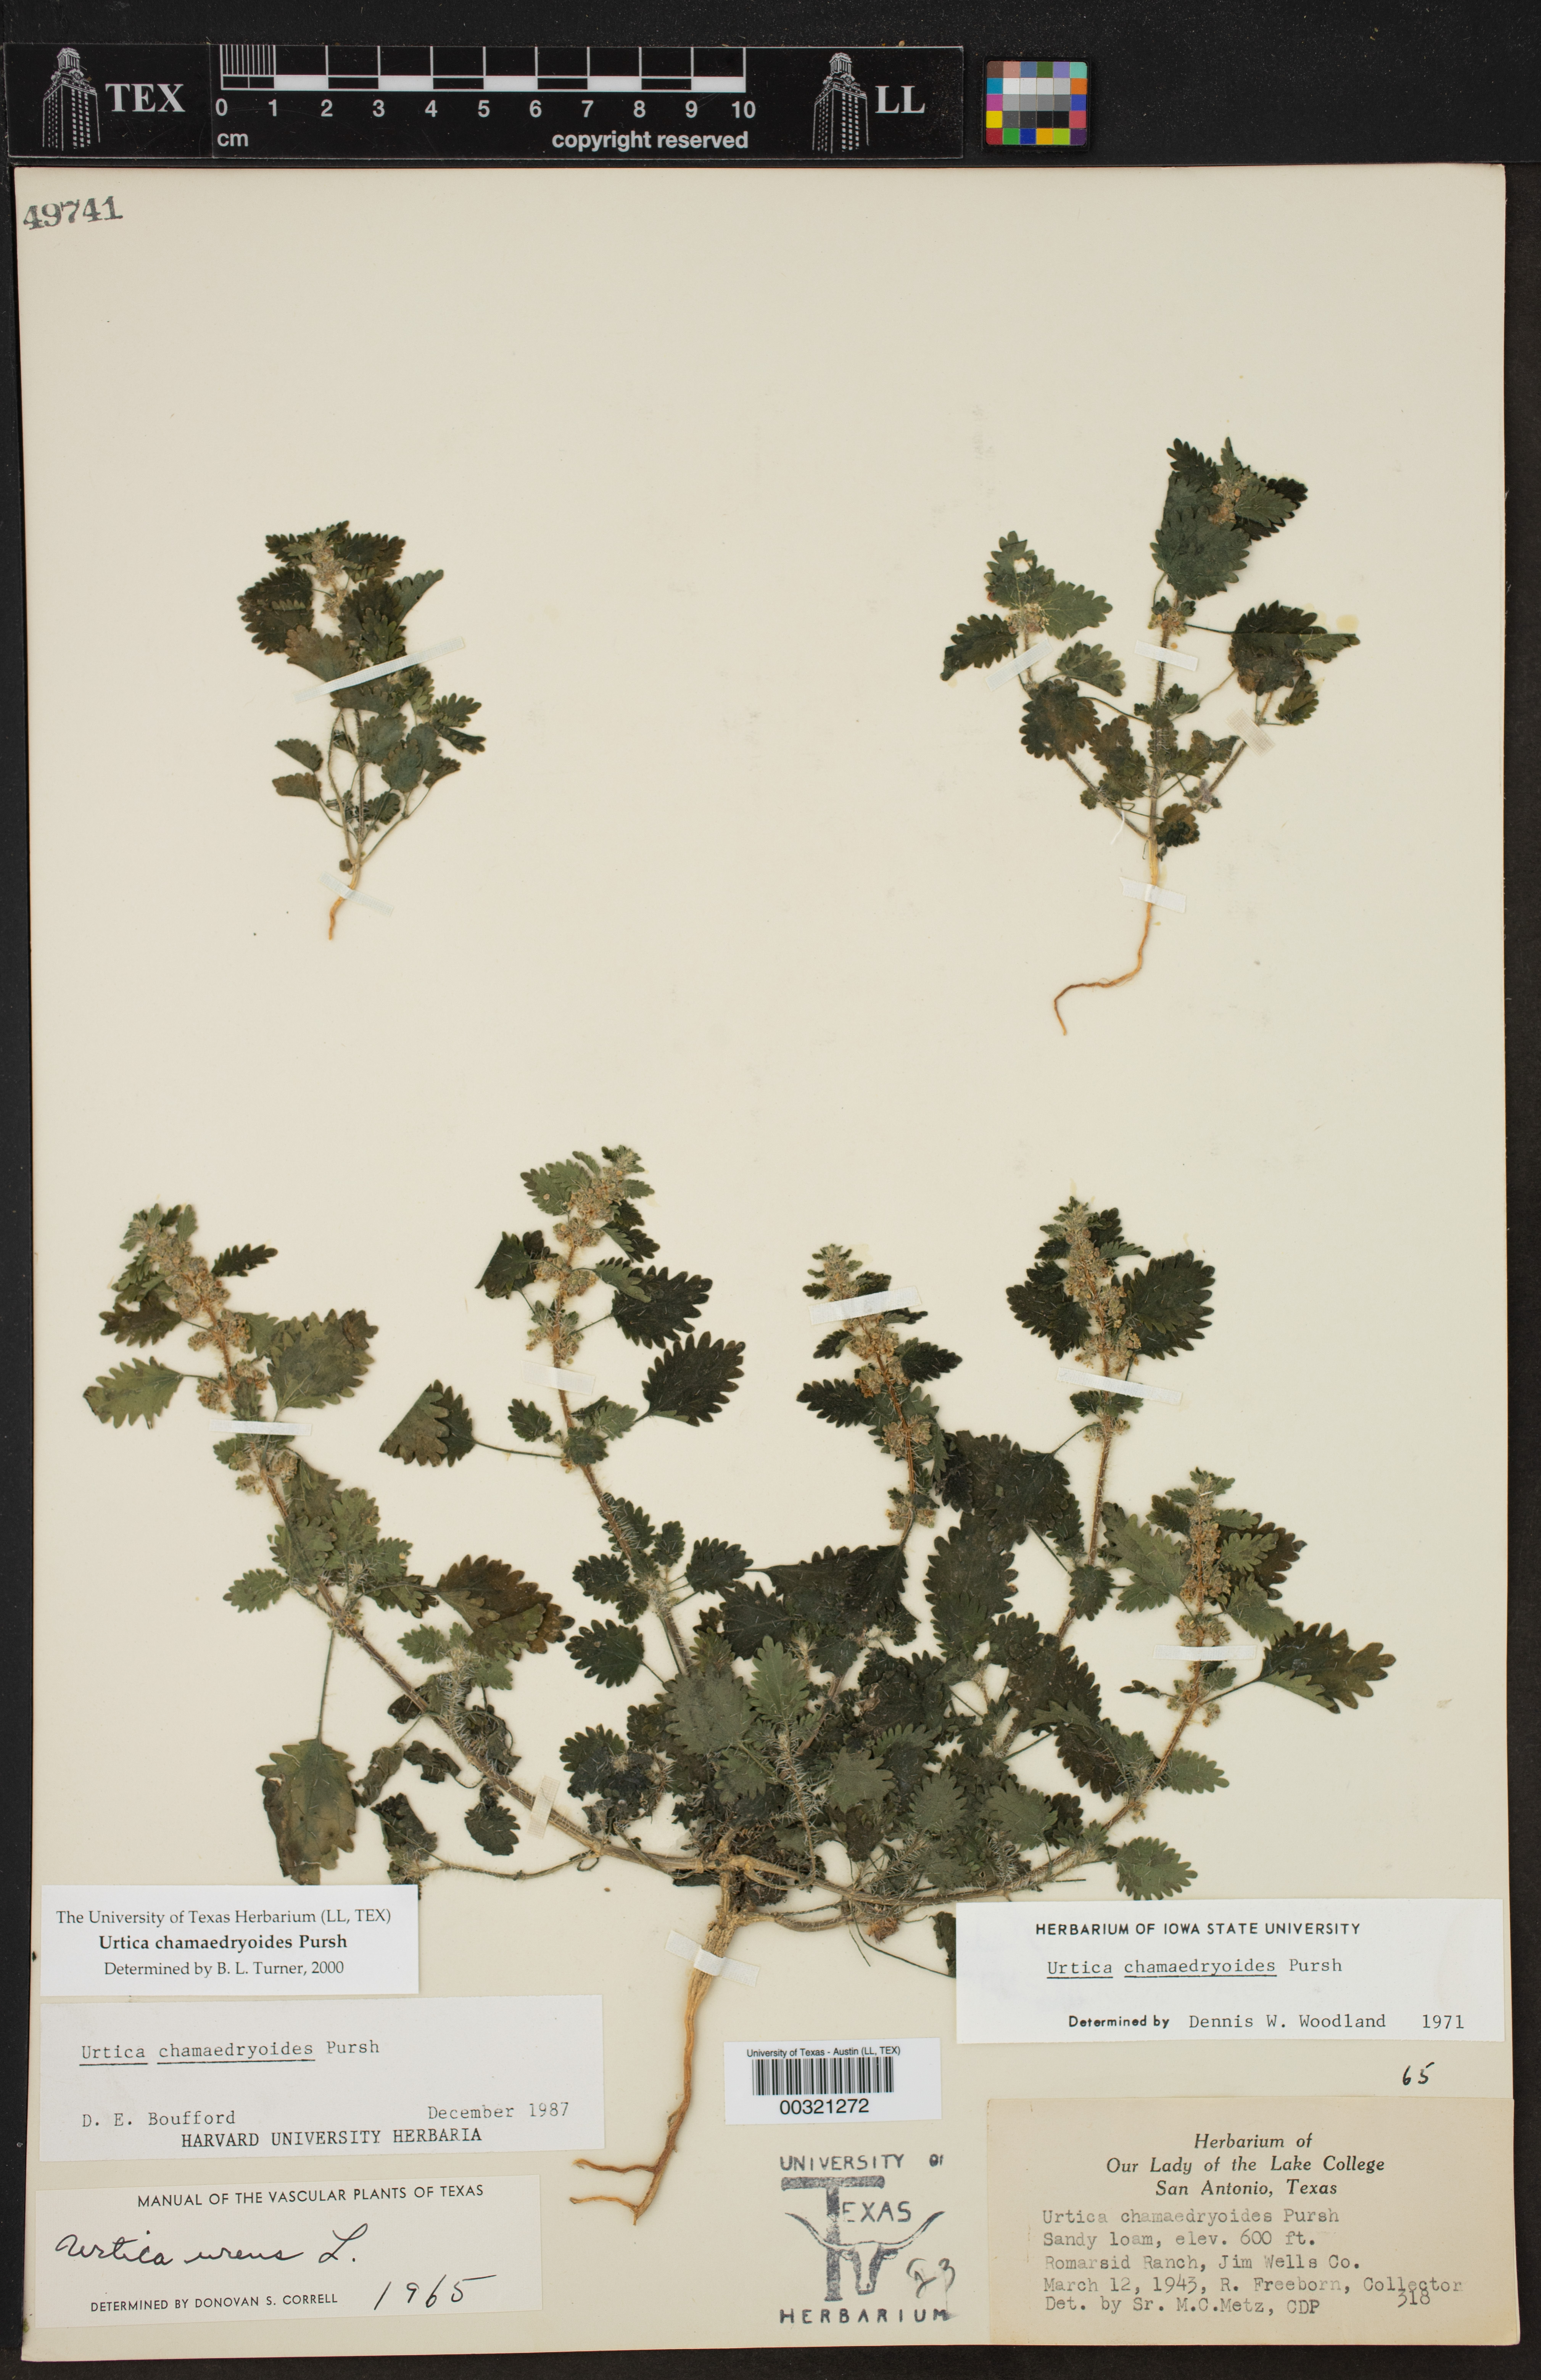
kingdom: Plantae
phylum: Tracheophyta
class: Magnoliopsida
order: Rosales
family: Urticaceae
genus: Urtica
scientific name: Urtica chamaedryoides
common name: Heart-leaf nettle
